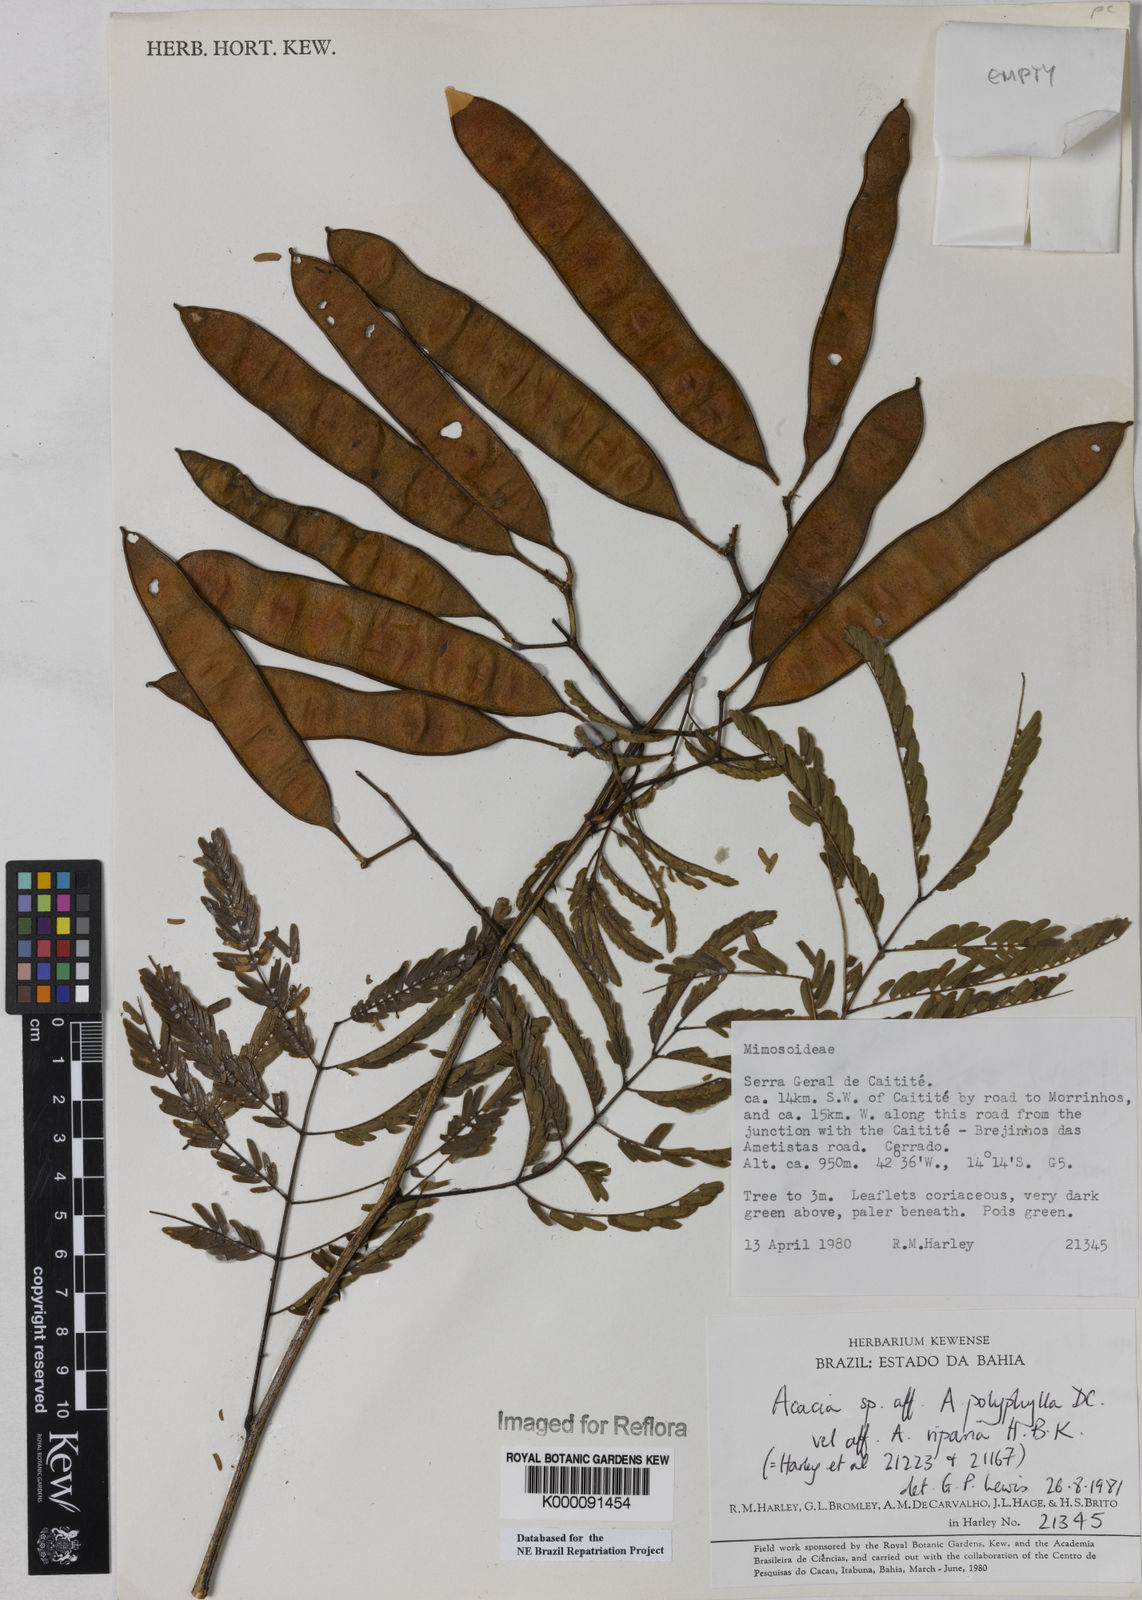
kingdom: Plantae
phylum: Tracheophyta
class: Magnoliopsida
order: Fabales
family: Fabaceae
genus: Senegalia
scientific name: Senegalia polyphylla
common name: White-tamarind
